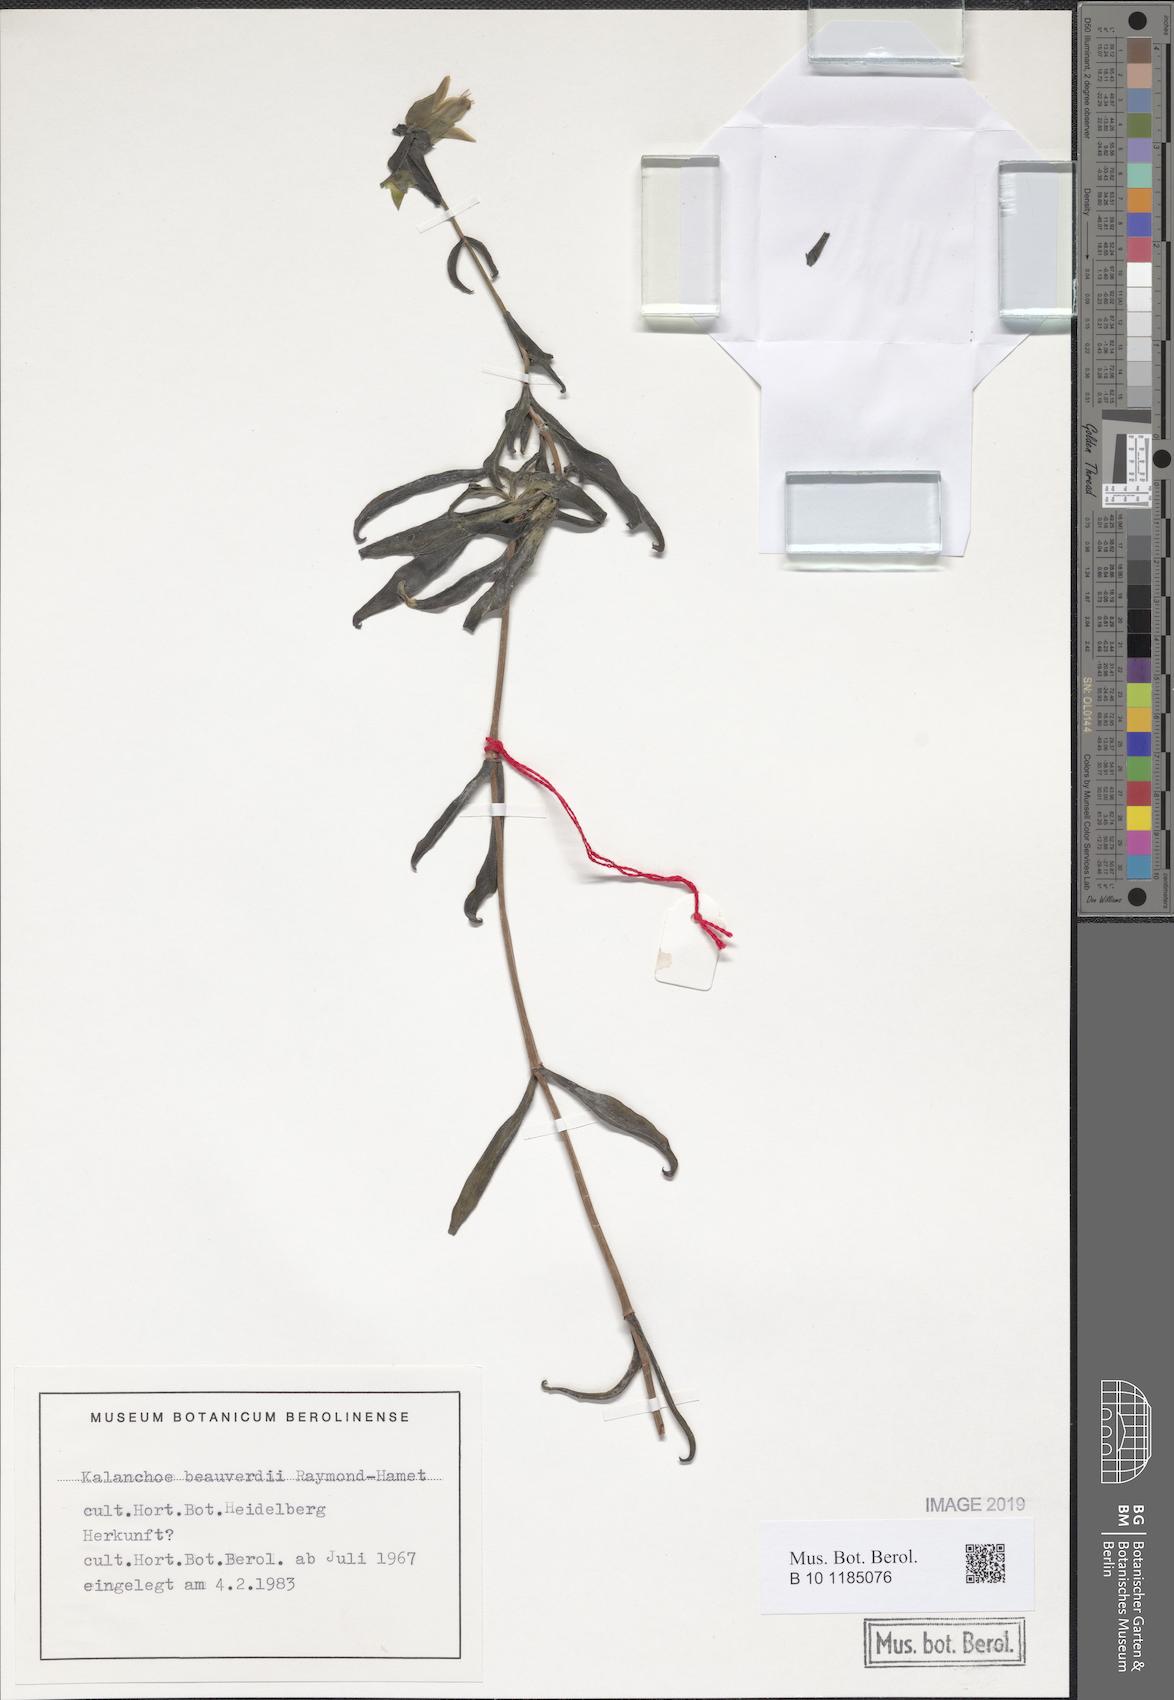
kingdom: Plantae
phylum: Tracheophyta
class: Magnoliopsida
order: Saxifragales
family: Crassulaceae
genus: Kalanchoe
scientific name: Kalanchoe beauverdii
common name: Beauverd's widow's-thrill
